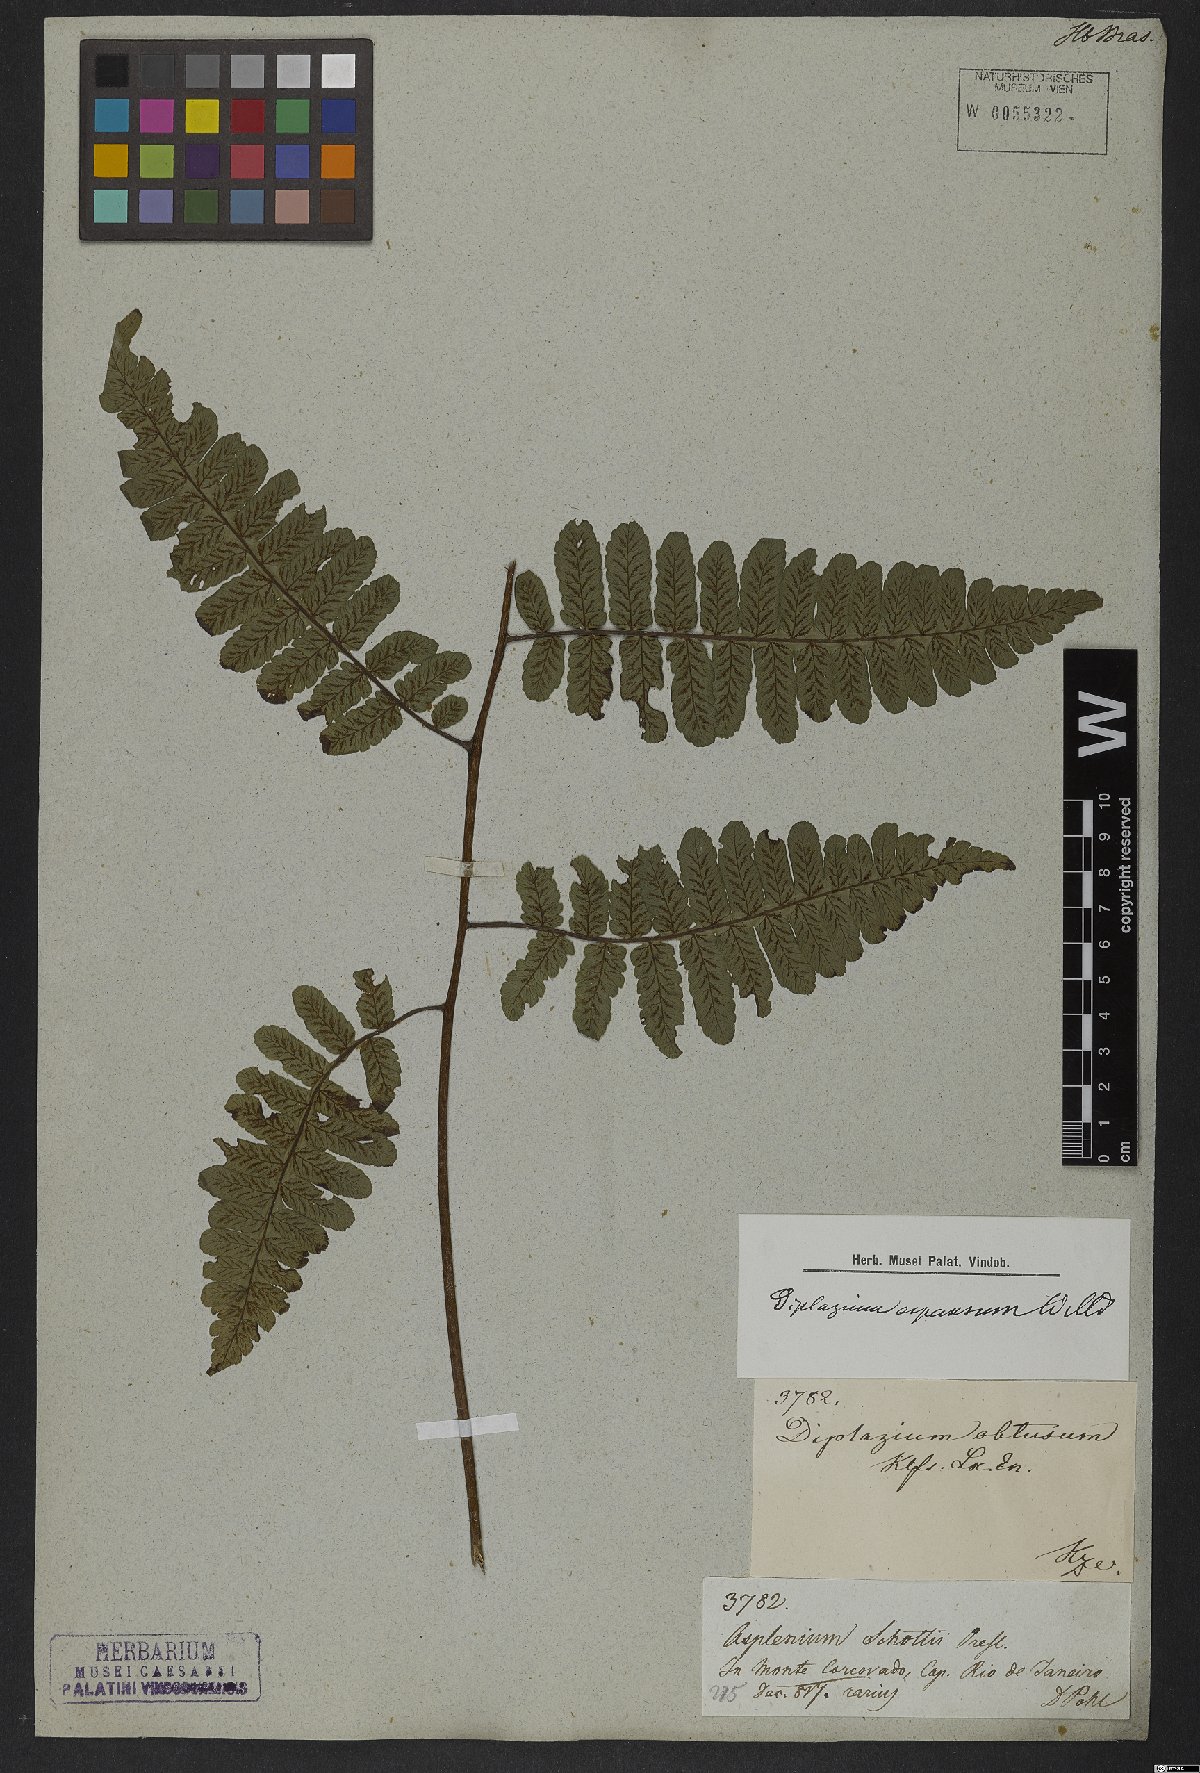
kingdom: Plantae
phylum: Tracheophyta
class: Polypodiopsida
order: Polypodiales
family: Athyriaceae
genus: Diplazium
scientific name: Diplazium expansum
